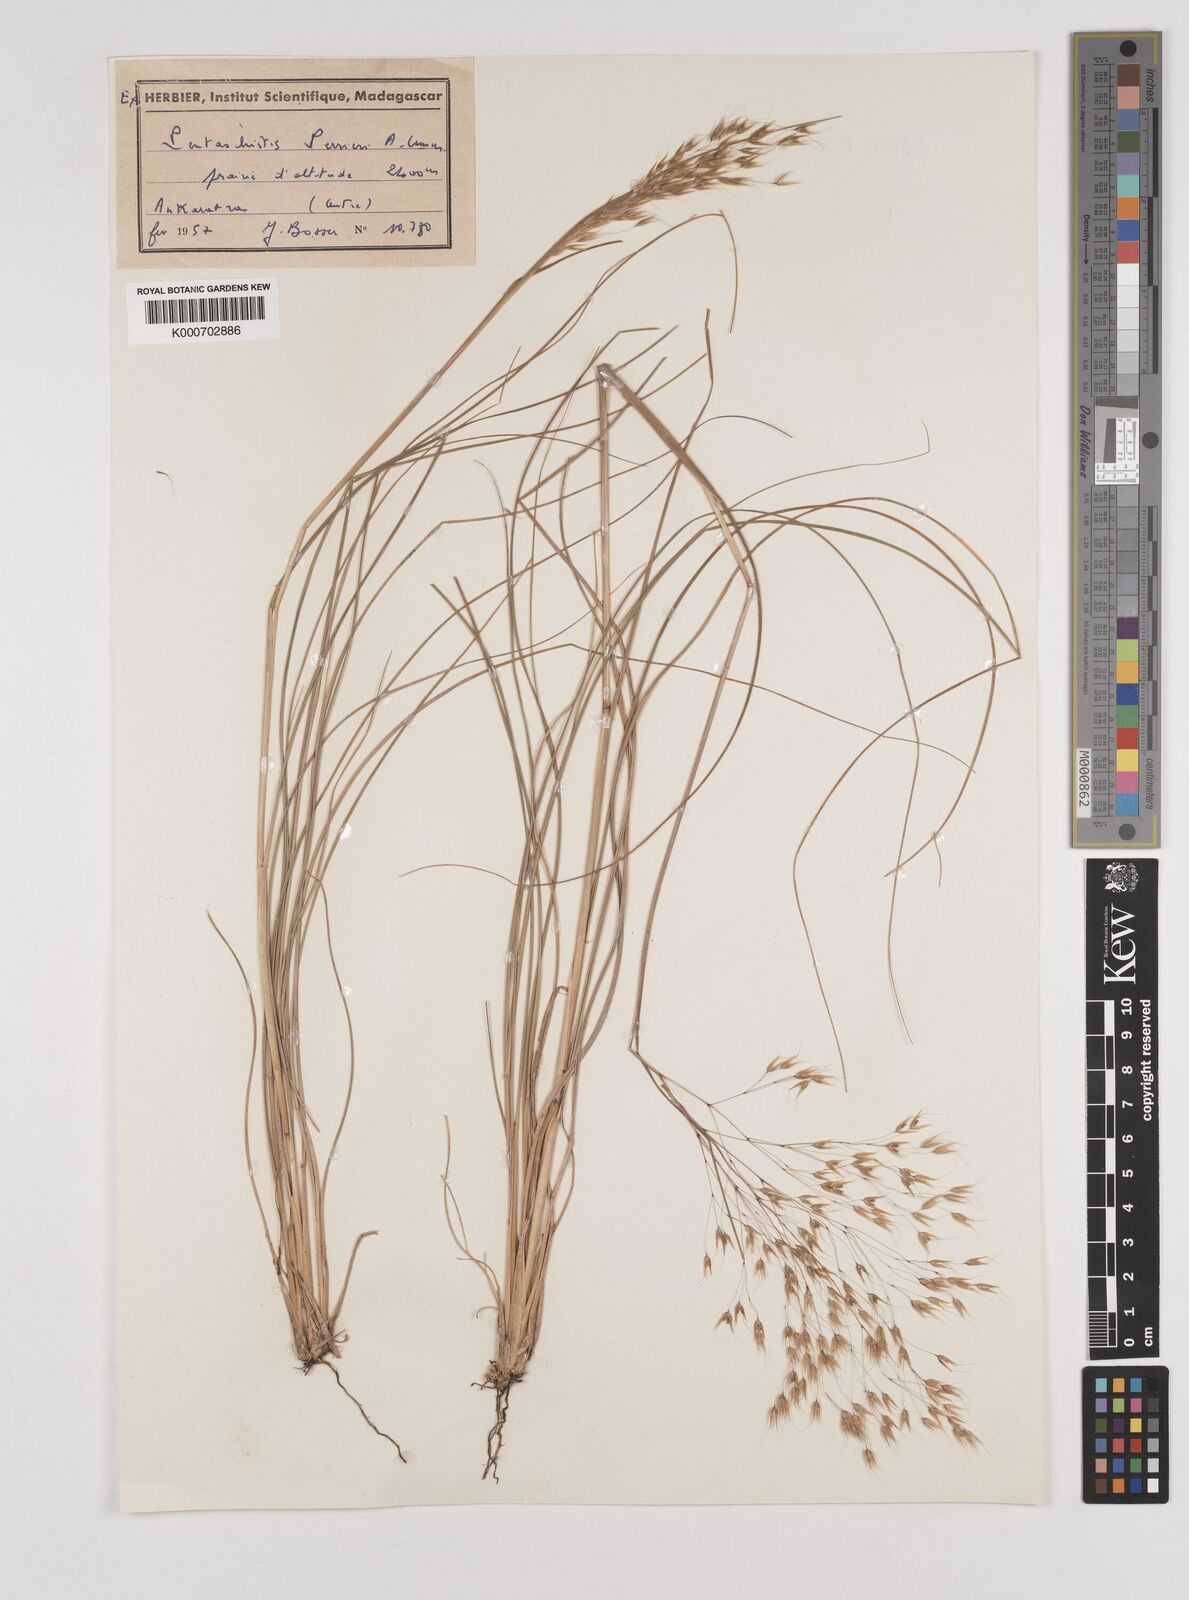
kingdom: Plantae
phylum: Tracheophyta
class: Liliopsida
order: Poales
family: Poaceae
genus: Pentameris
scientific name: Pentameris natalensis
